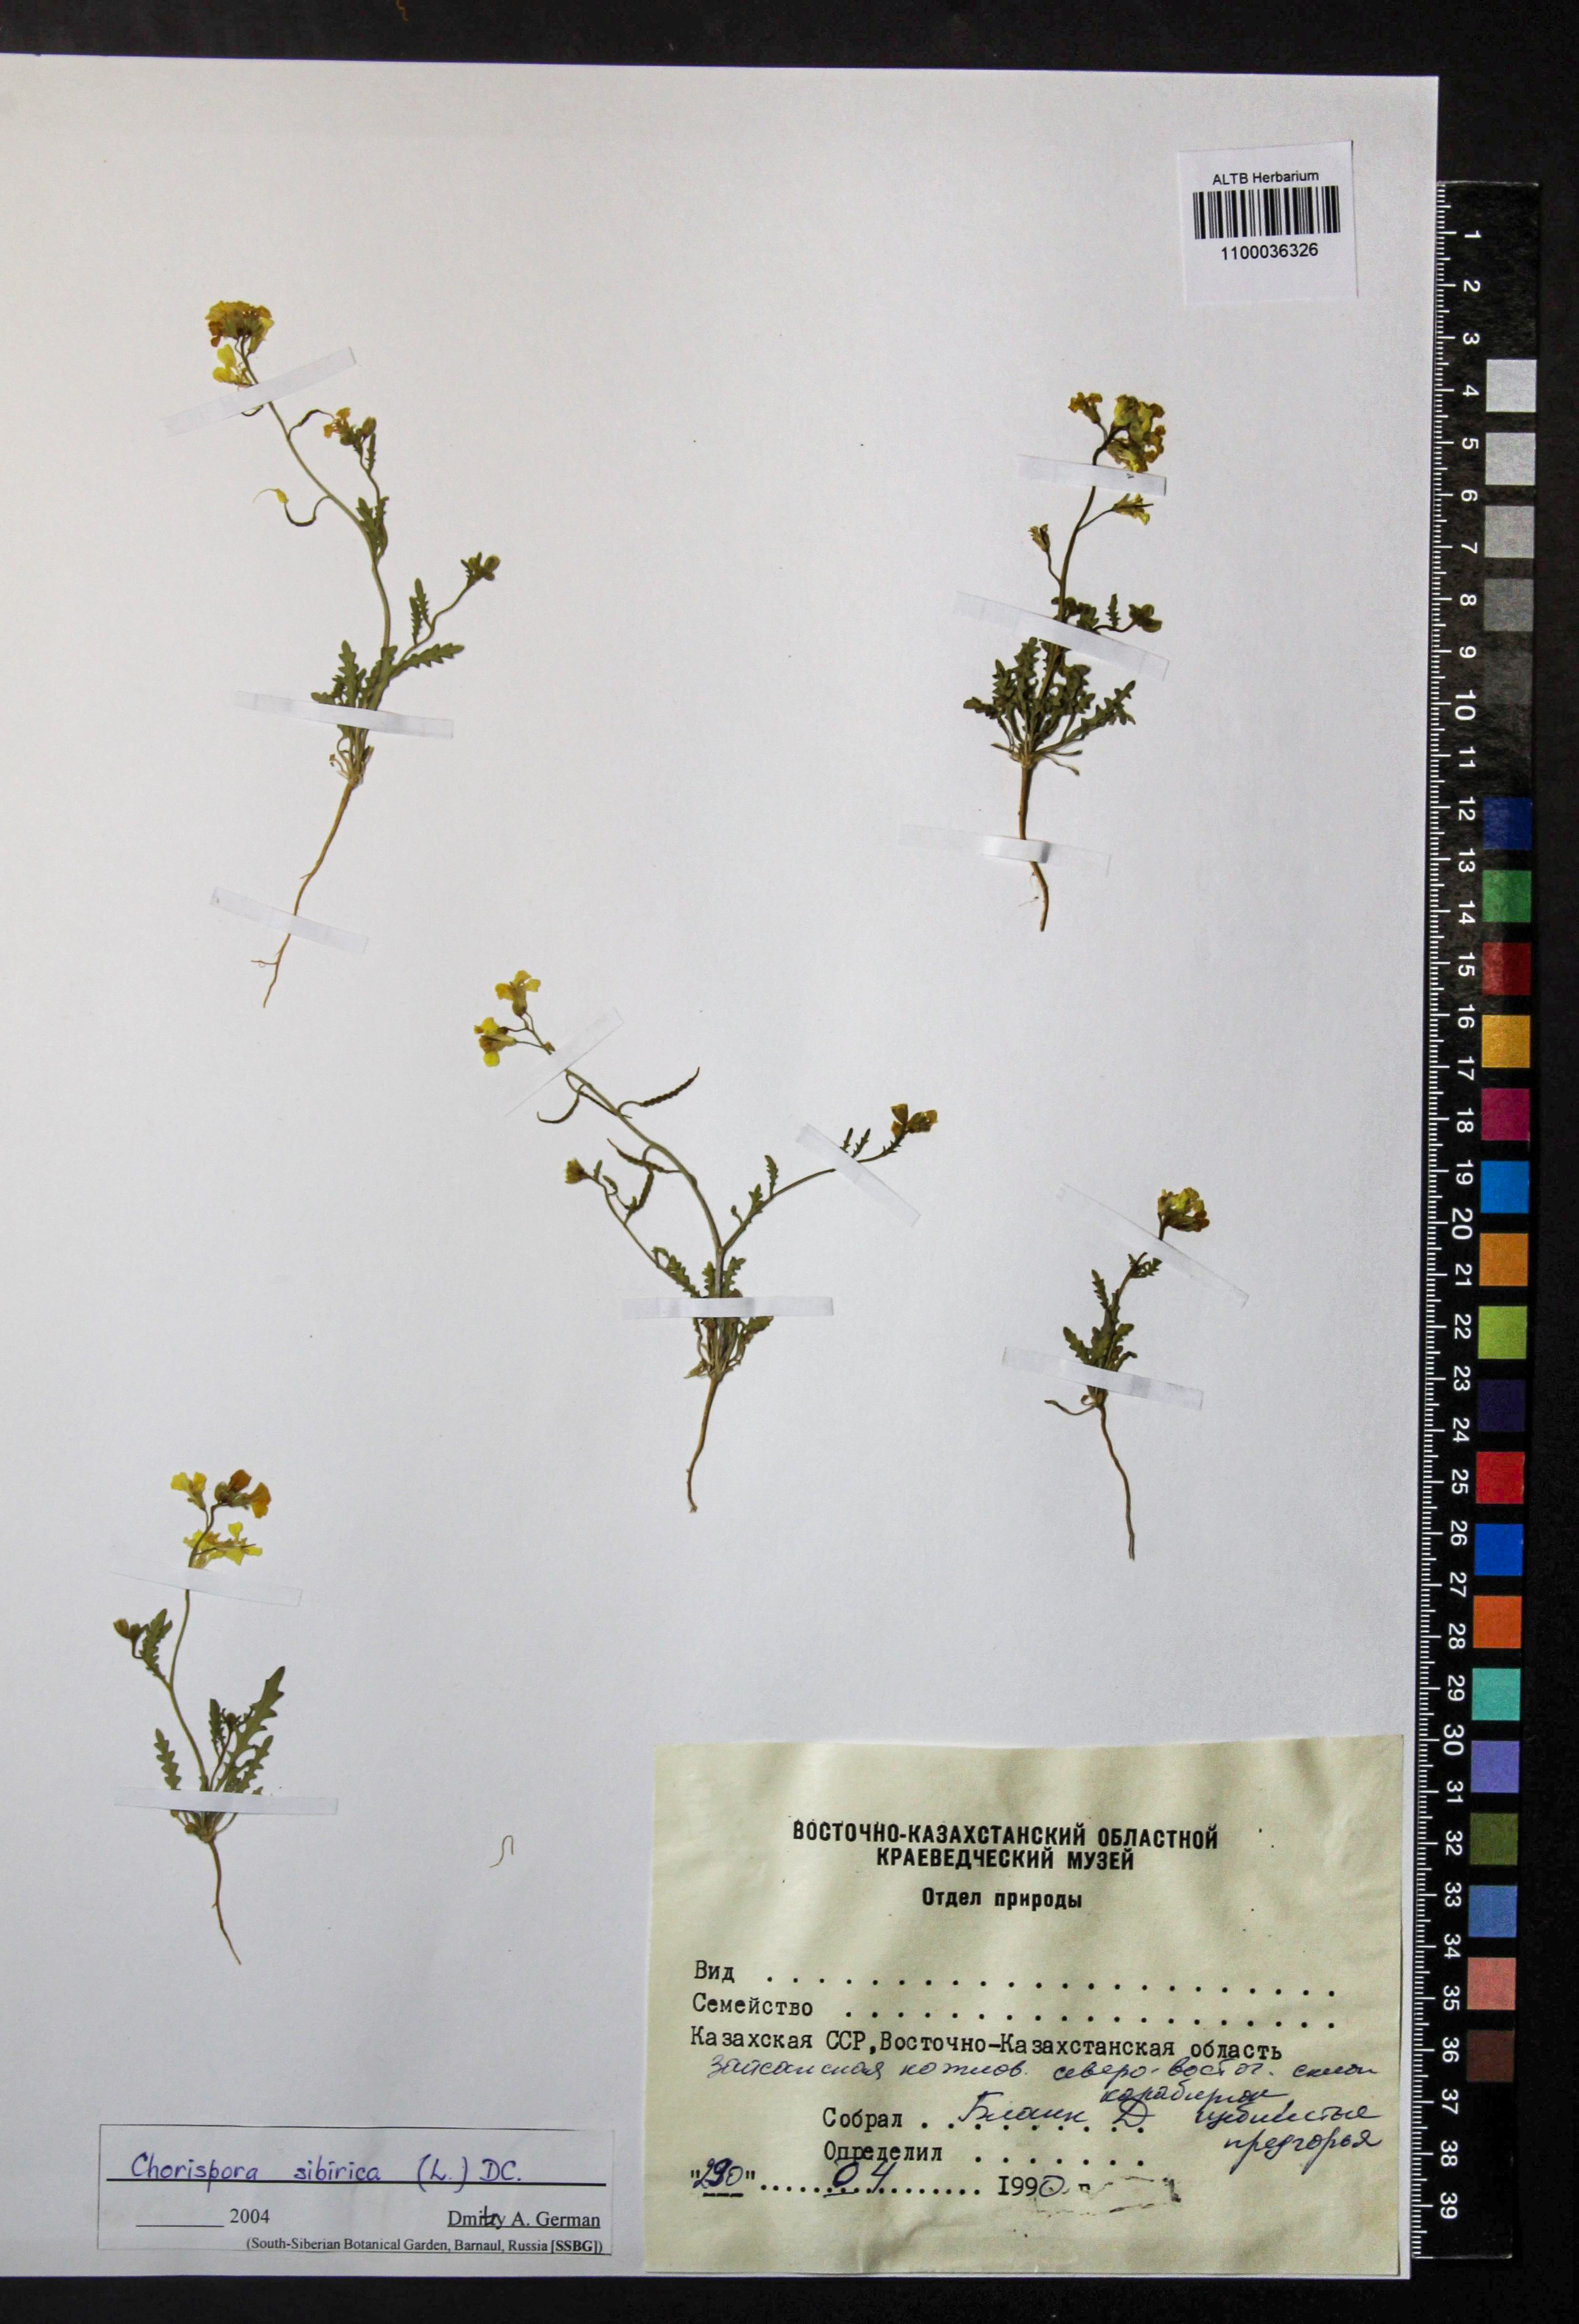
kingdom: Plantae
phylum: Tracheophyta
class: Magnoliopsida
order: Brassicales
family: Brassicaceae
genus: Chorispora
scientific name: Chorispora sibirica
